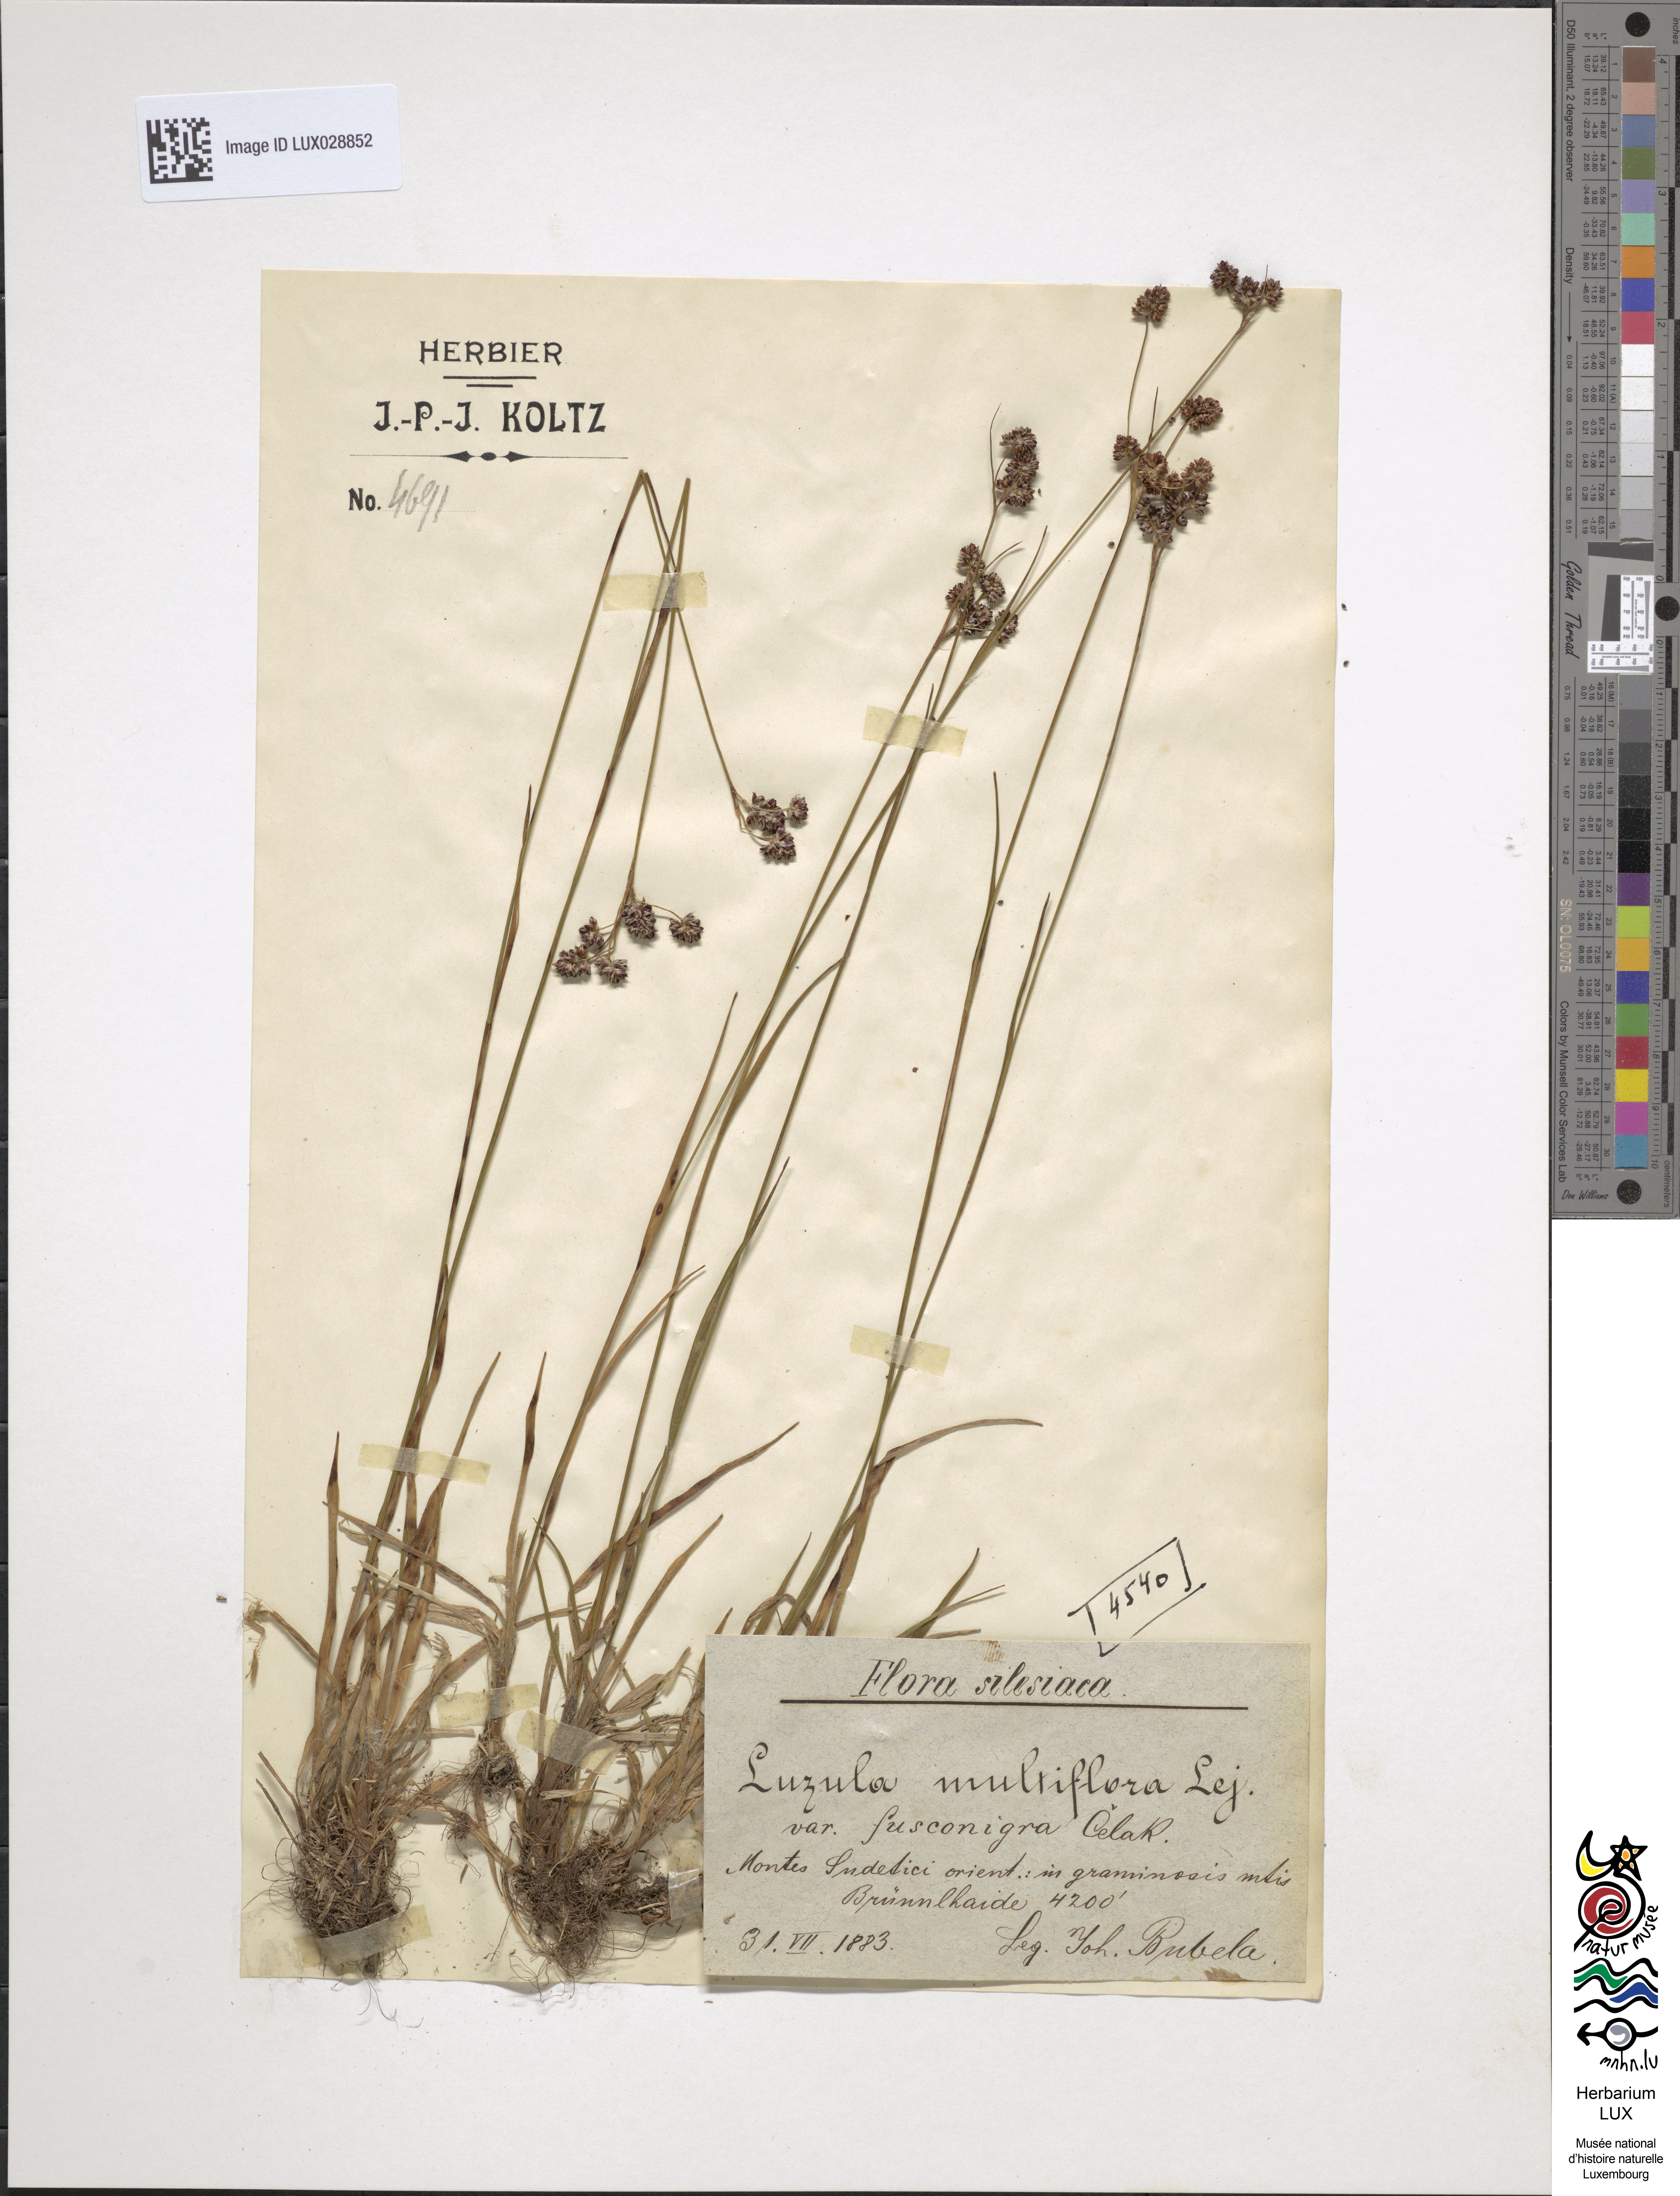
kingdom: Plantae
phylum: Tracheophyta
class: Liliopsida
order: Poales
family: Juncaceae
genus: Luzula
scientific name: Luzula campestris
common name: Field wood-rush
